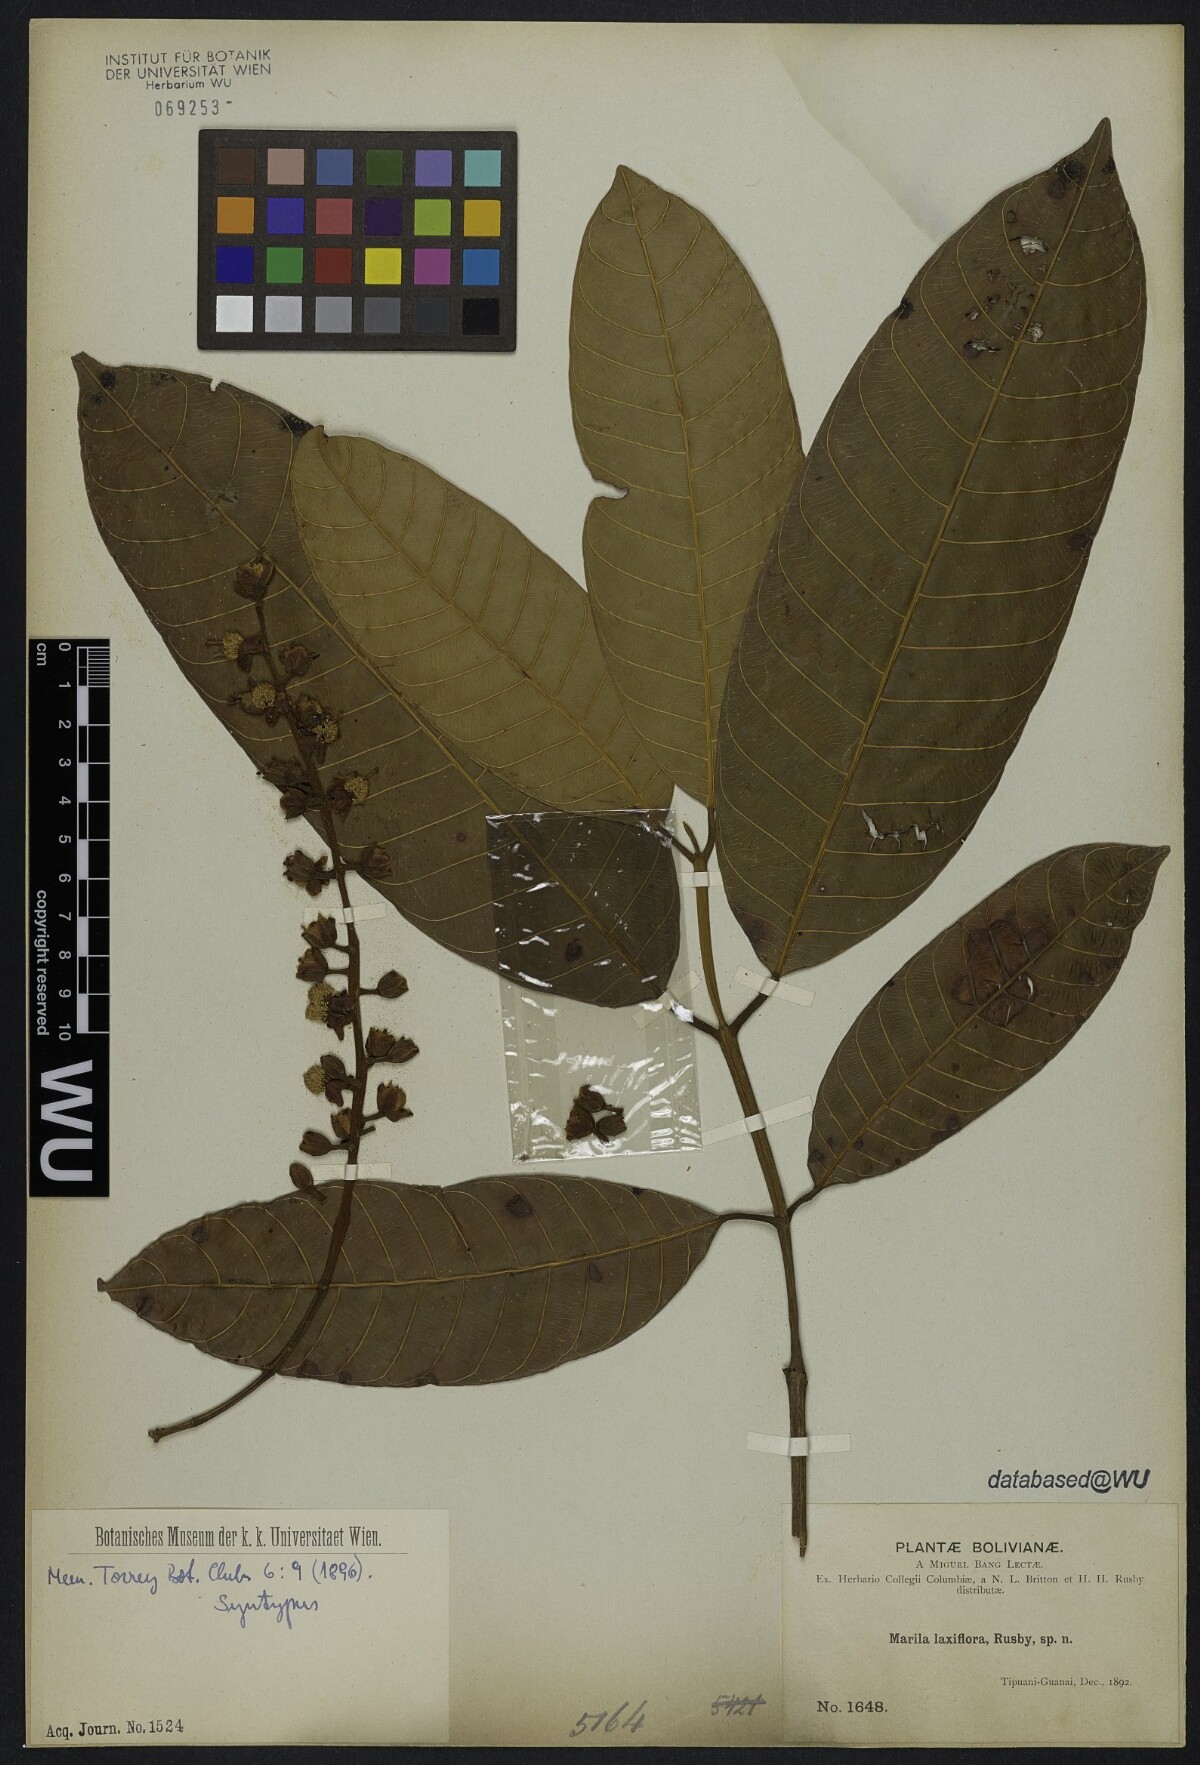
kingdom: Plantae
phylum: Tracheophyta
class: Magnoliopsida
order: Malpighiales
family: Calophyllaceae
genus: Marila
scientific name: Marila laxiflora
